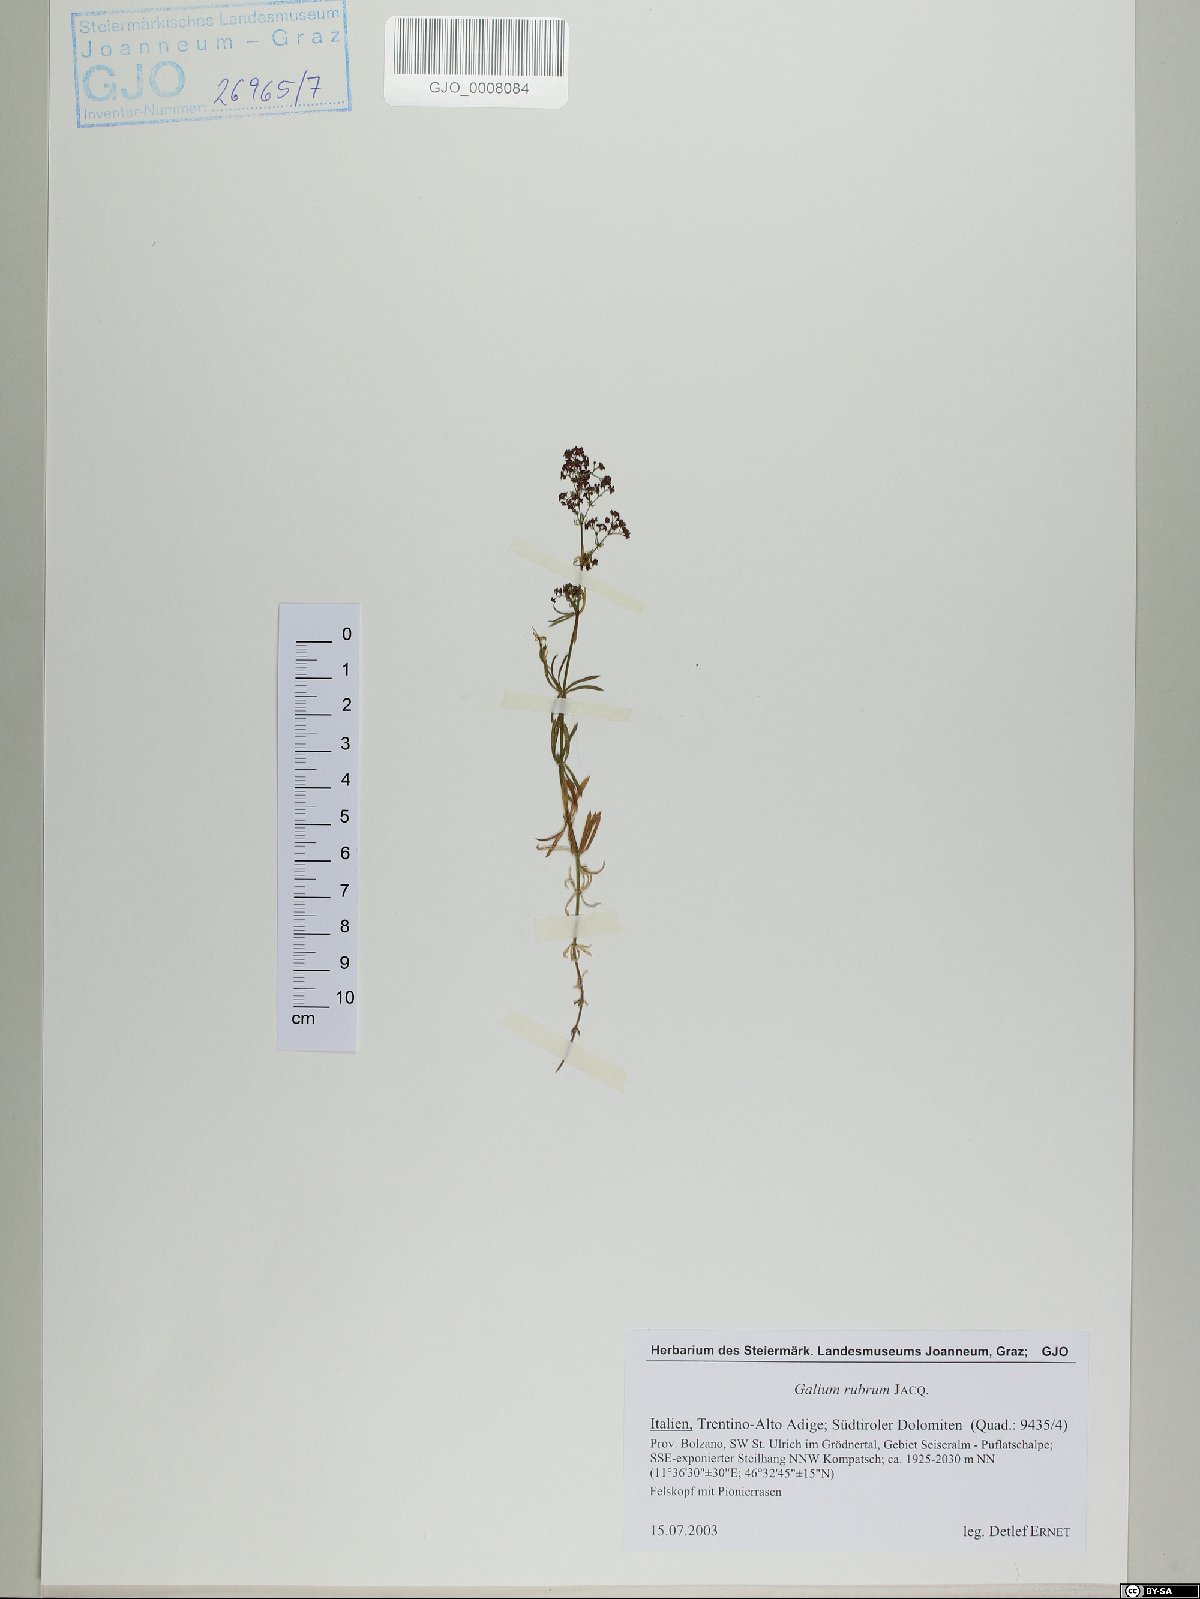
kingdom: Plantae
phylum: Tracheophyta
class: Magnoliopsida
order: Gentianales
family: Rubiaceae
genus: Galium
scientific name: Galium rubrum
